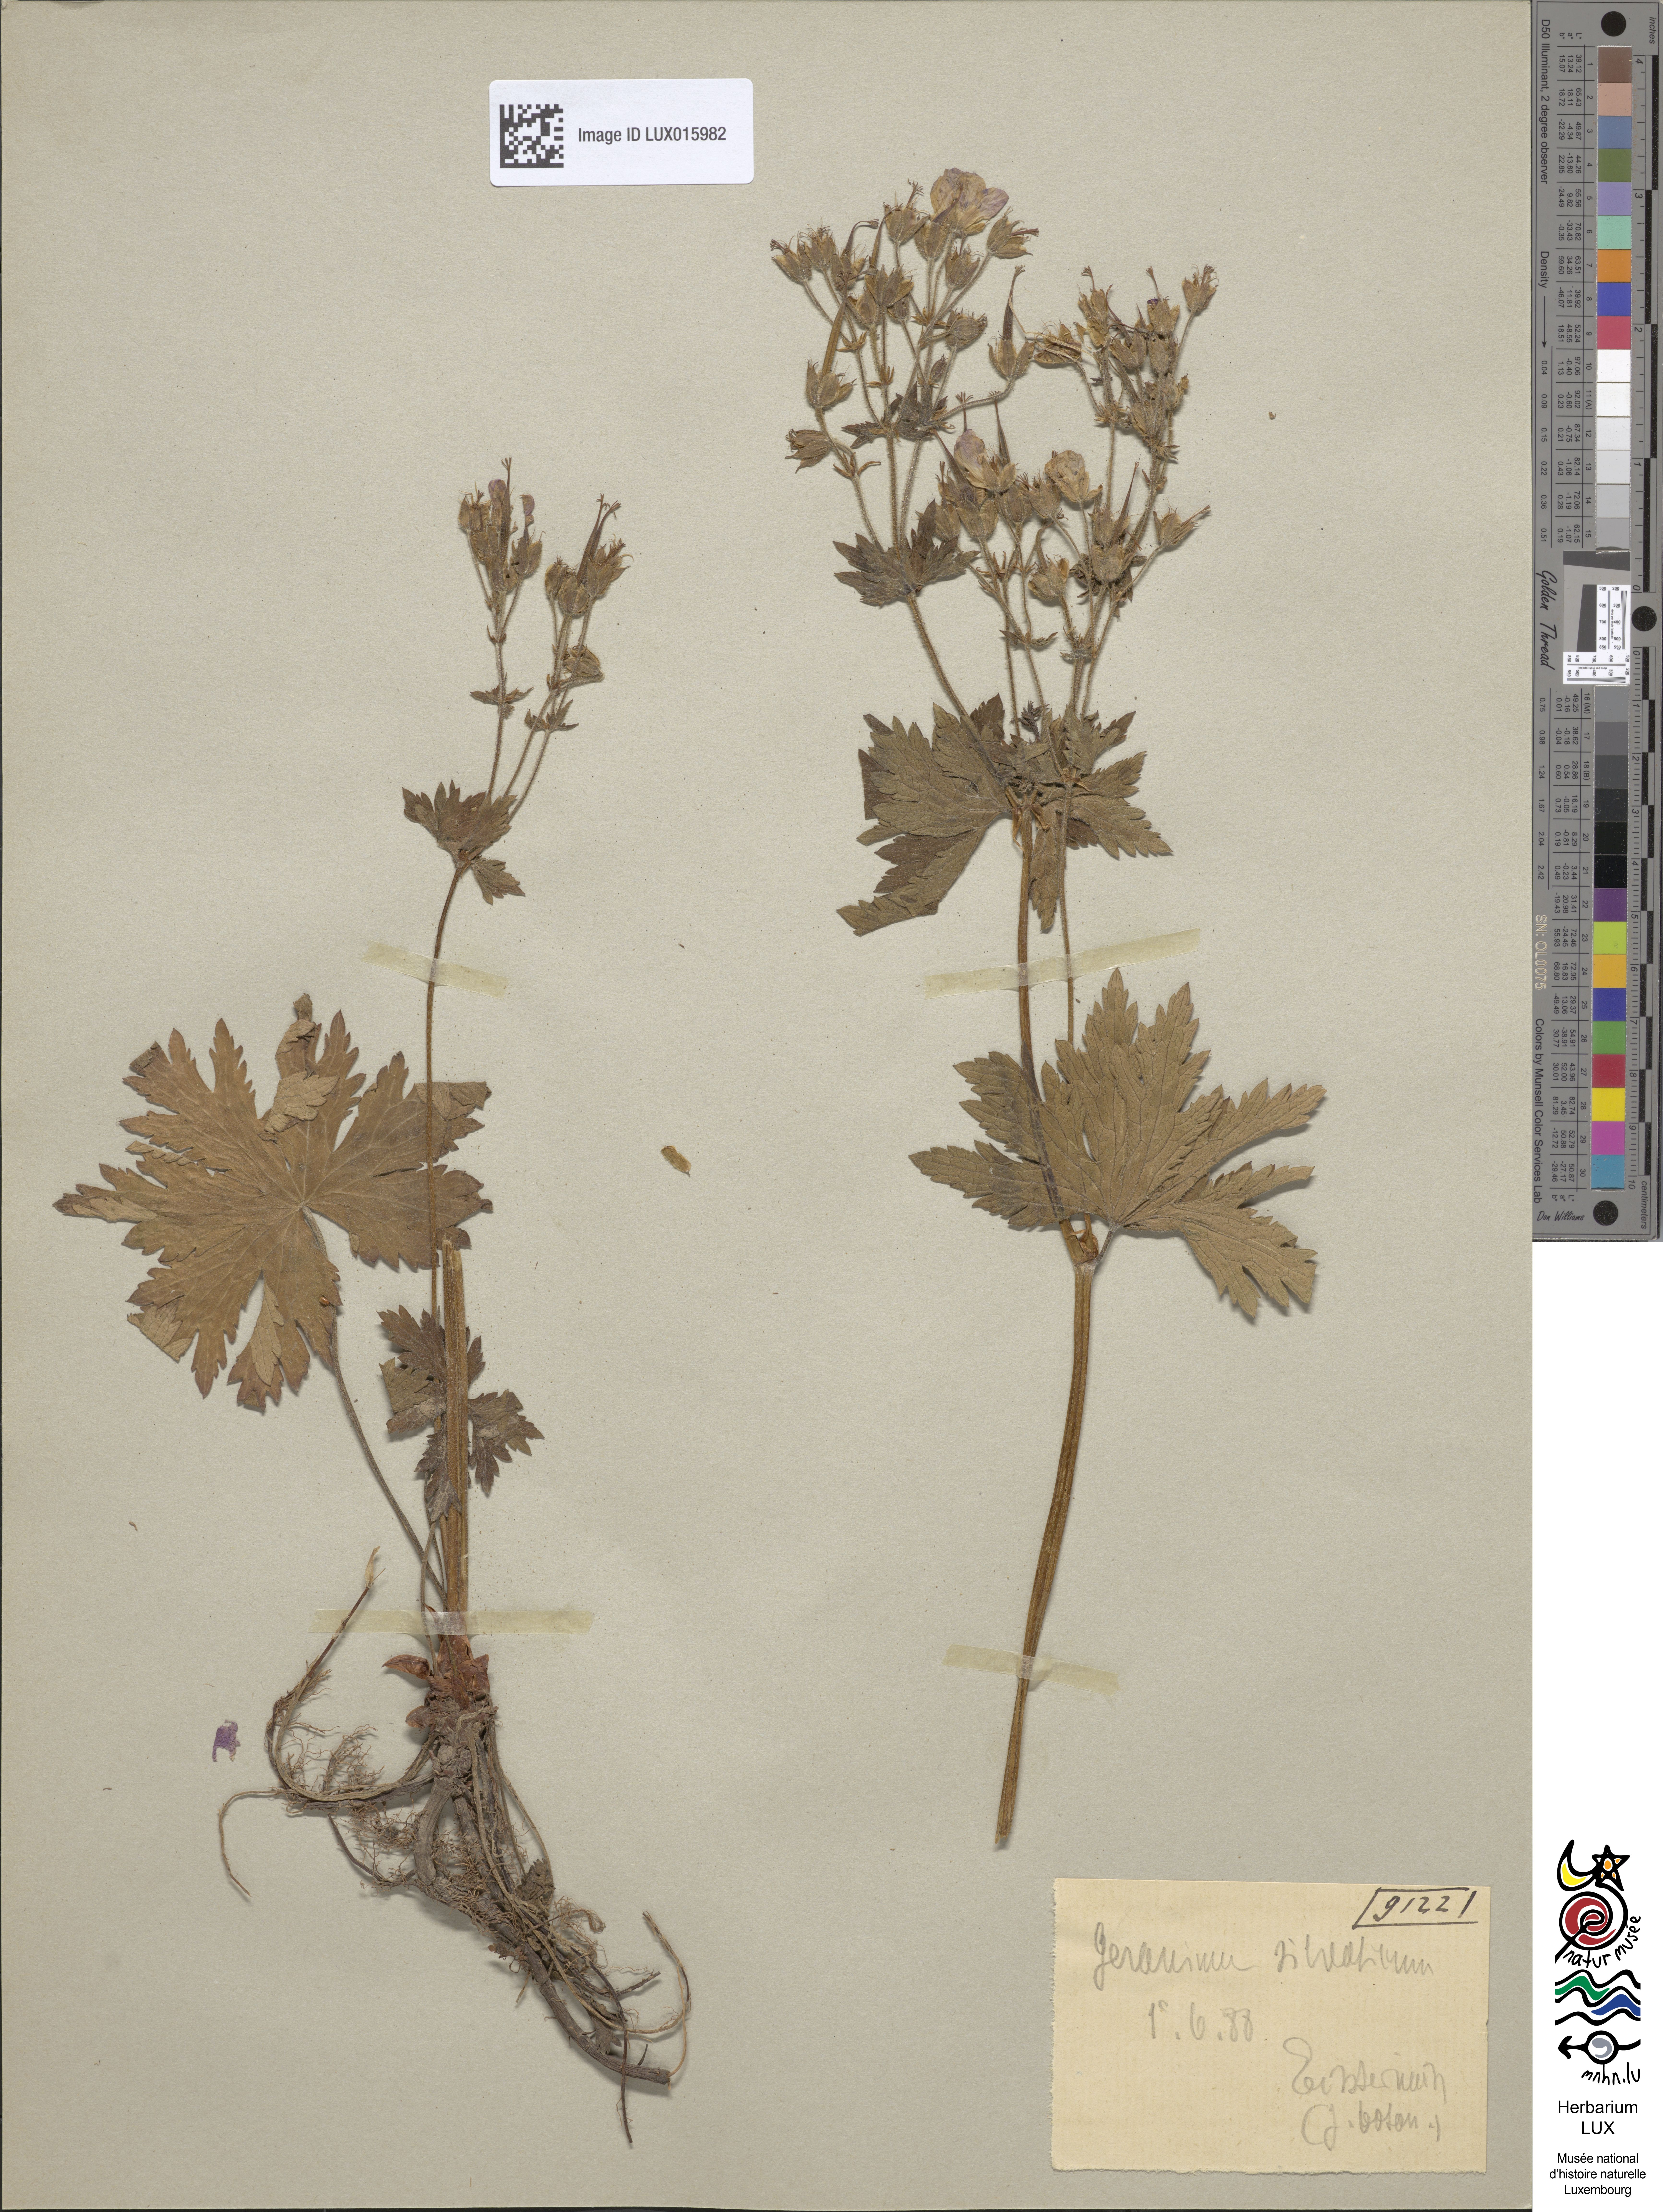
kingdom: Plantae
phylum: Tracheophyta
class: Magnoliopsida
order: Geraniales
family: Geraniaceae
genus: Geranium
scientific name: Geranium sylvaticum
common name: Wood crane's-bill
